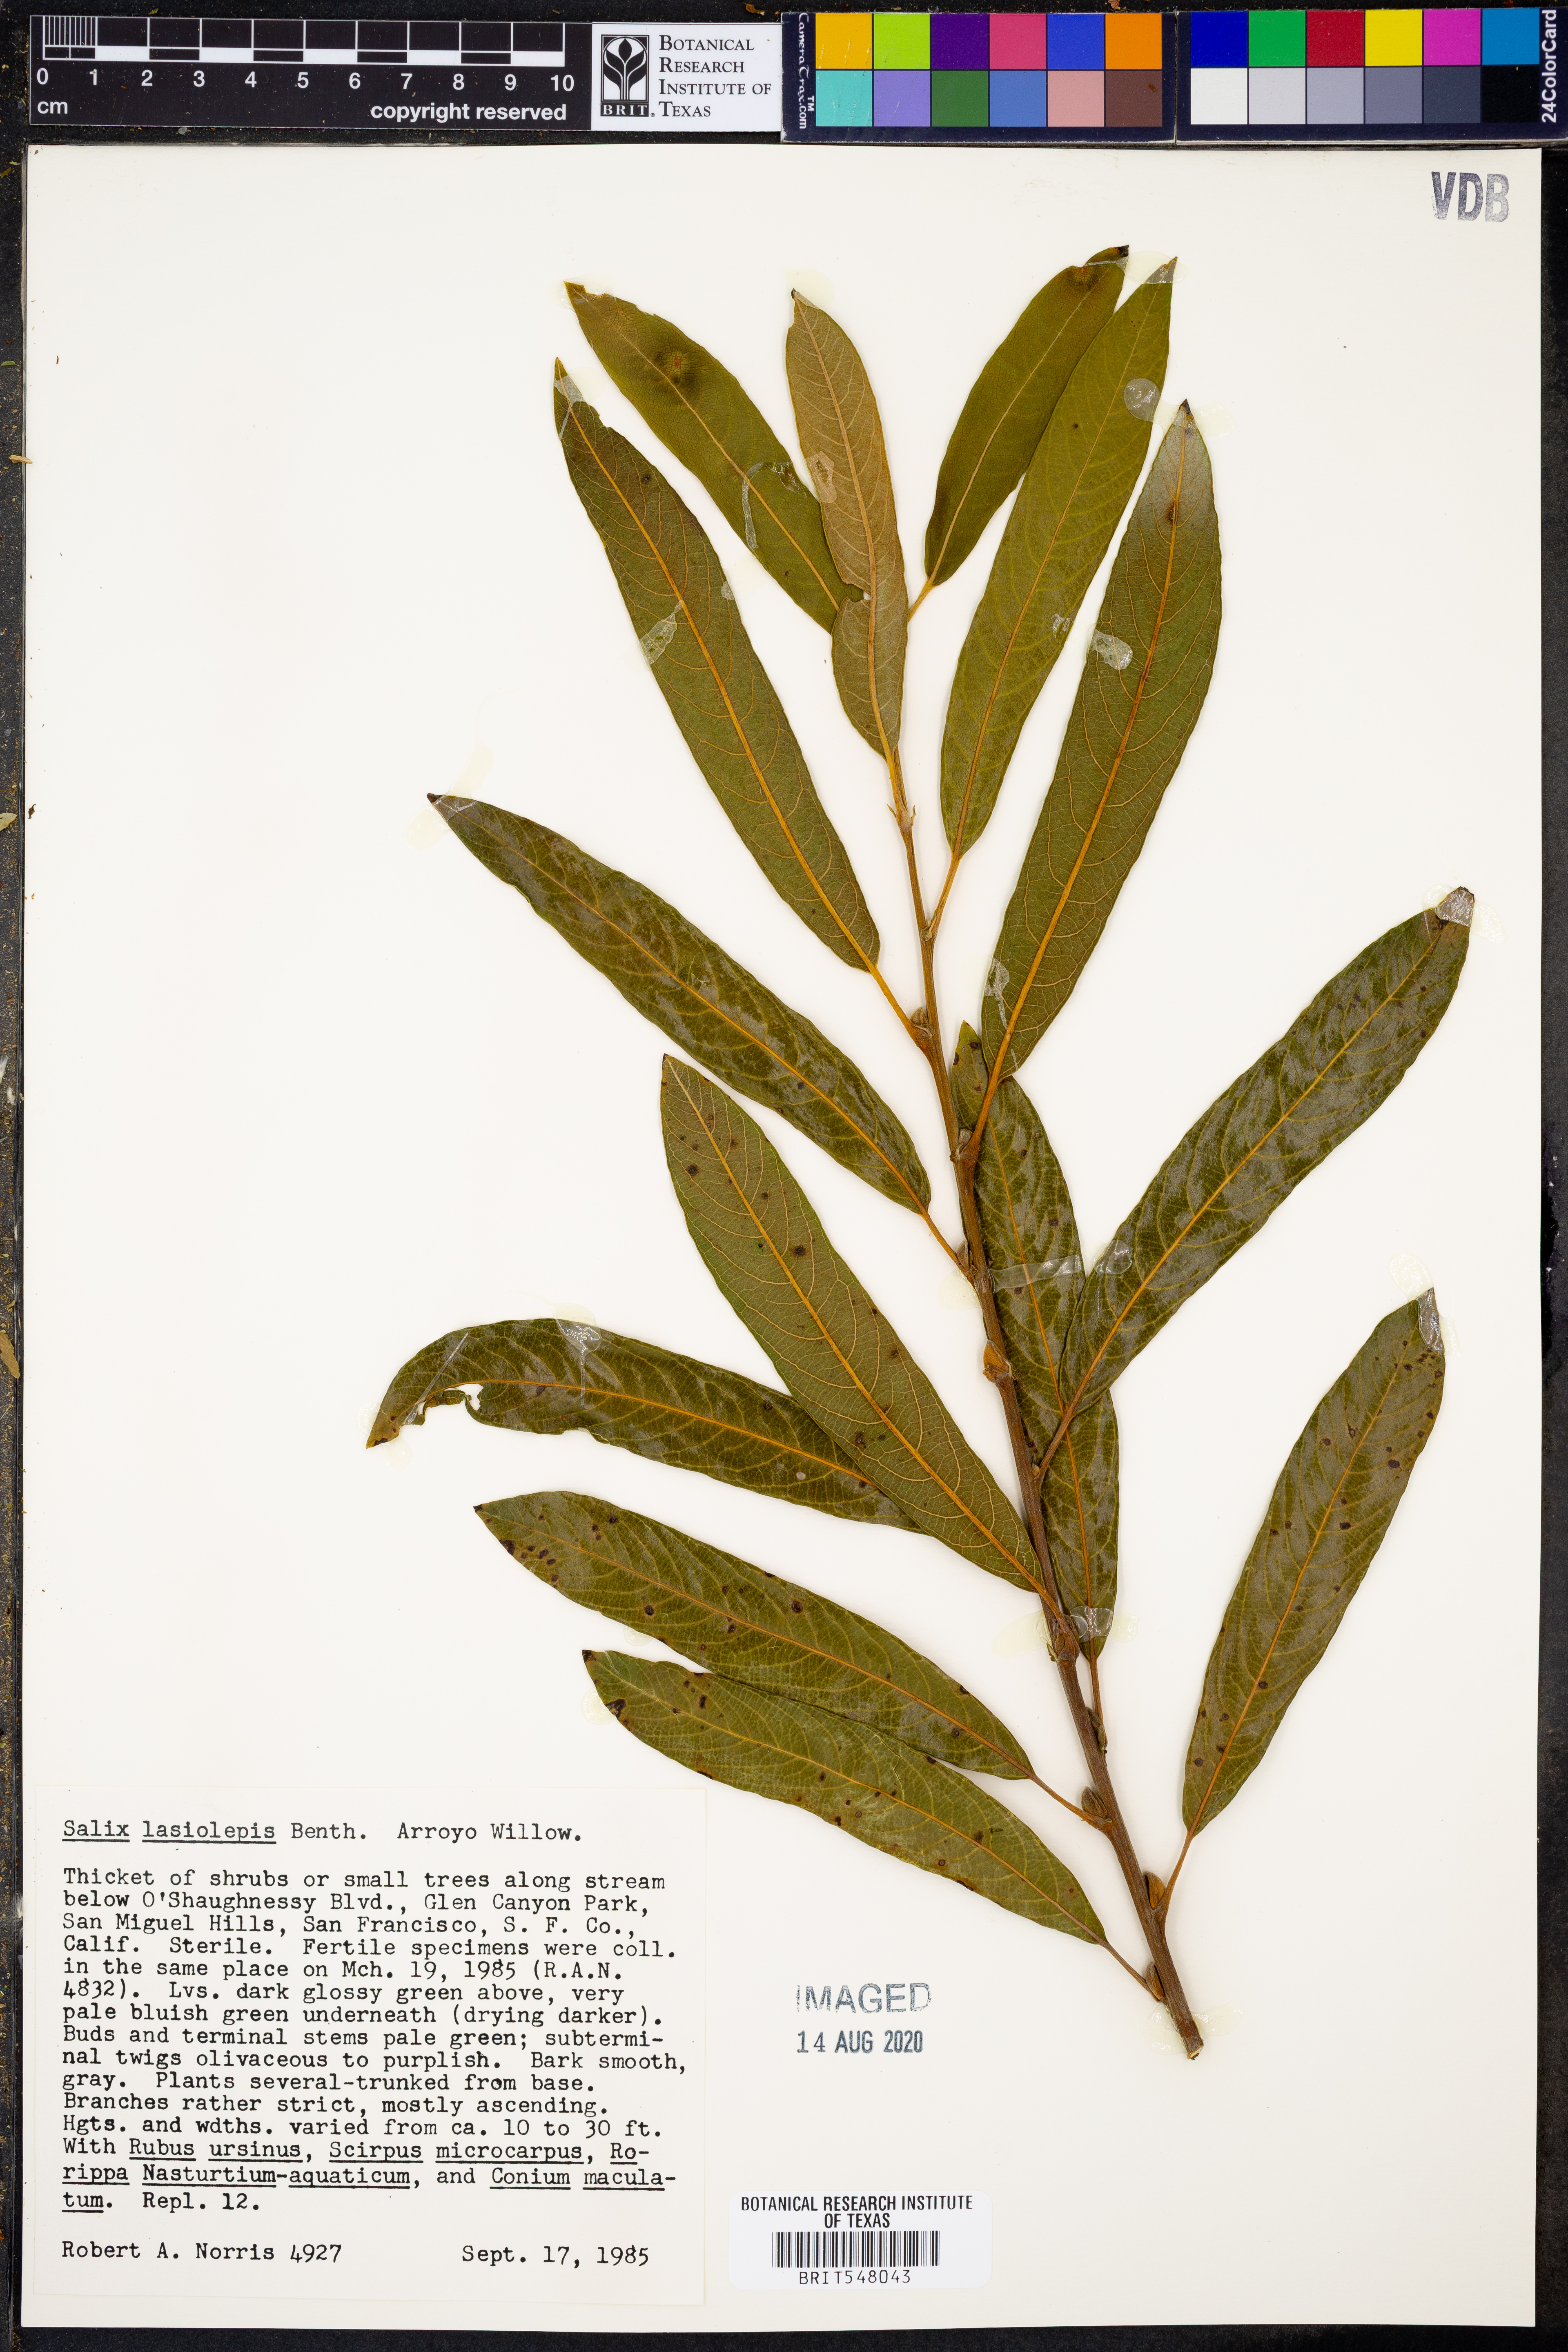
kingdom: Plantae
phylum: Tracheophyta
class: Magnoliopsida
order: Malpighiales
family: Salicaceae
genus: Salix
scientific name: Salix lasiolepis
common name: Arroyo willow
